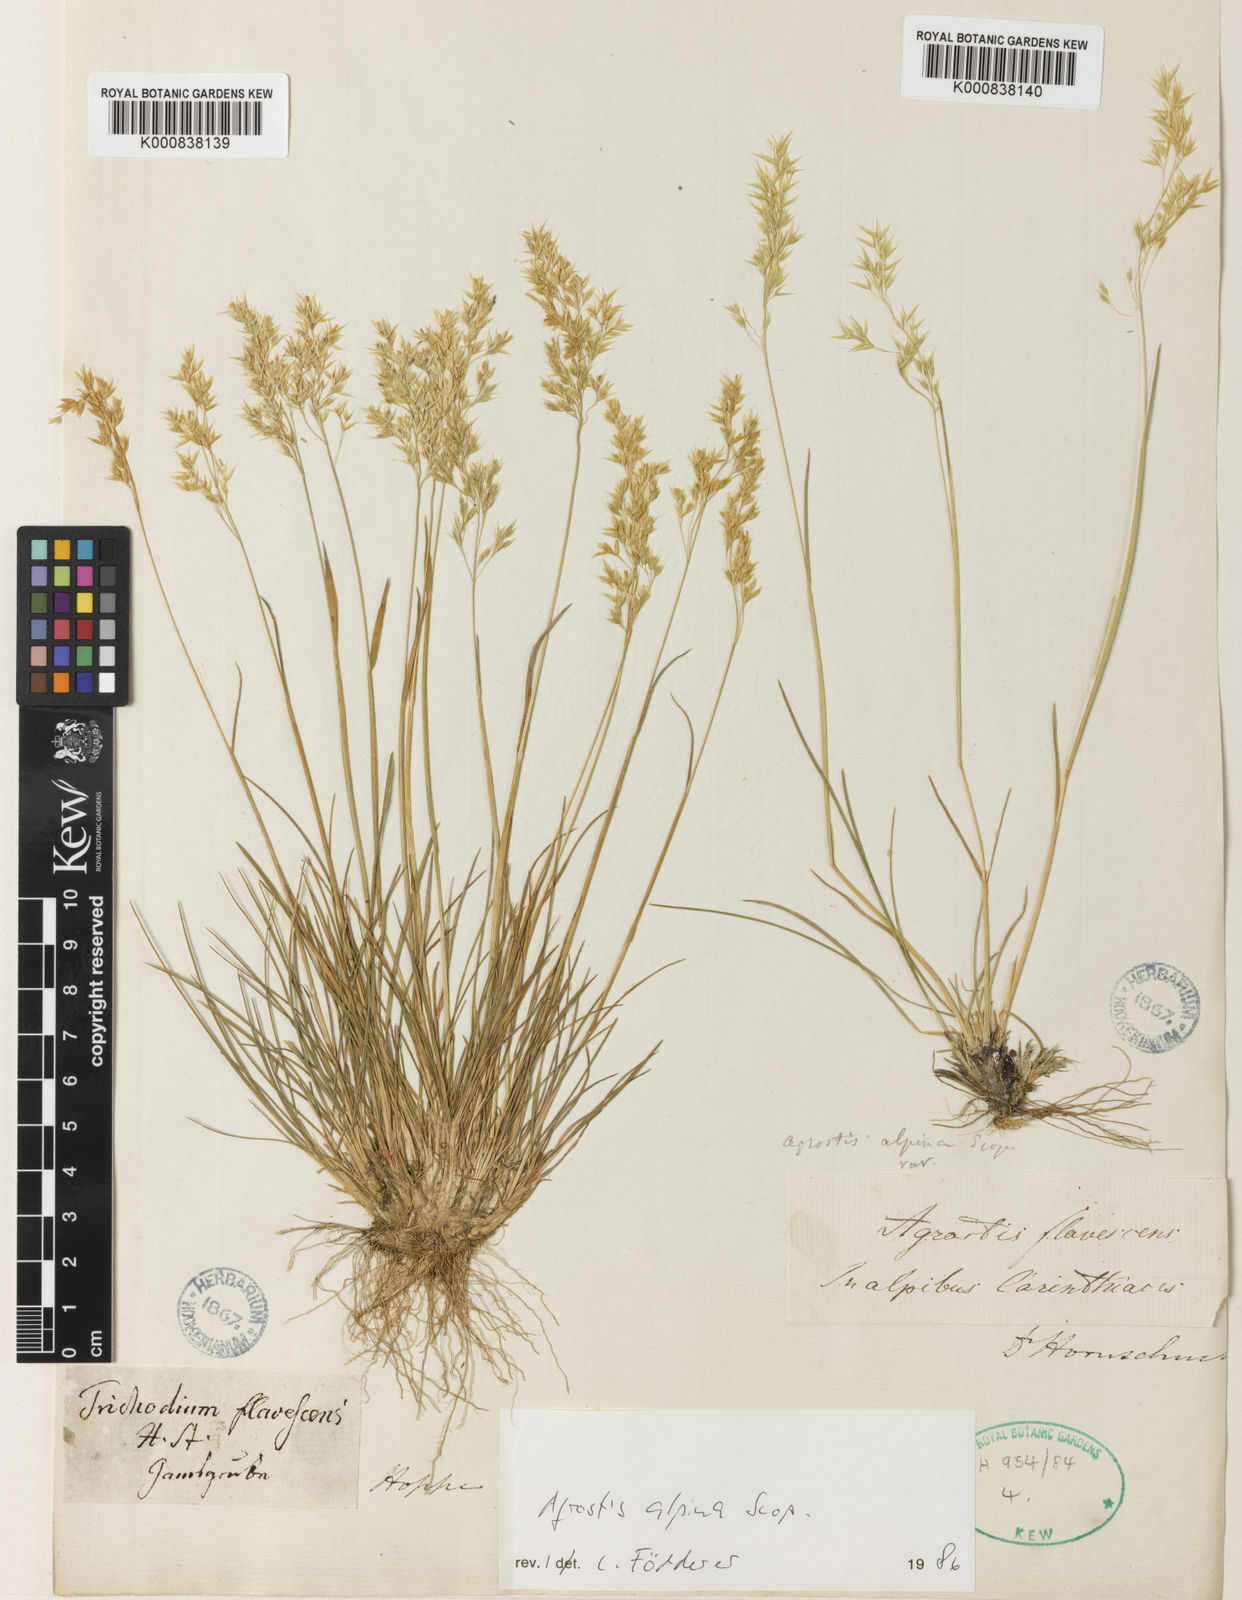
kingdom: Plantae
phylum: Tracheophyta
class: Liliopsida
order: Poales
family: Poaceae
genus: Alpagrostis
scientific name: Alpagrostis alpina
